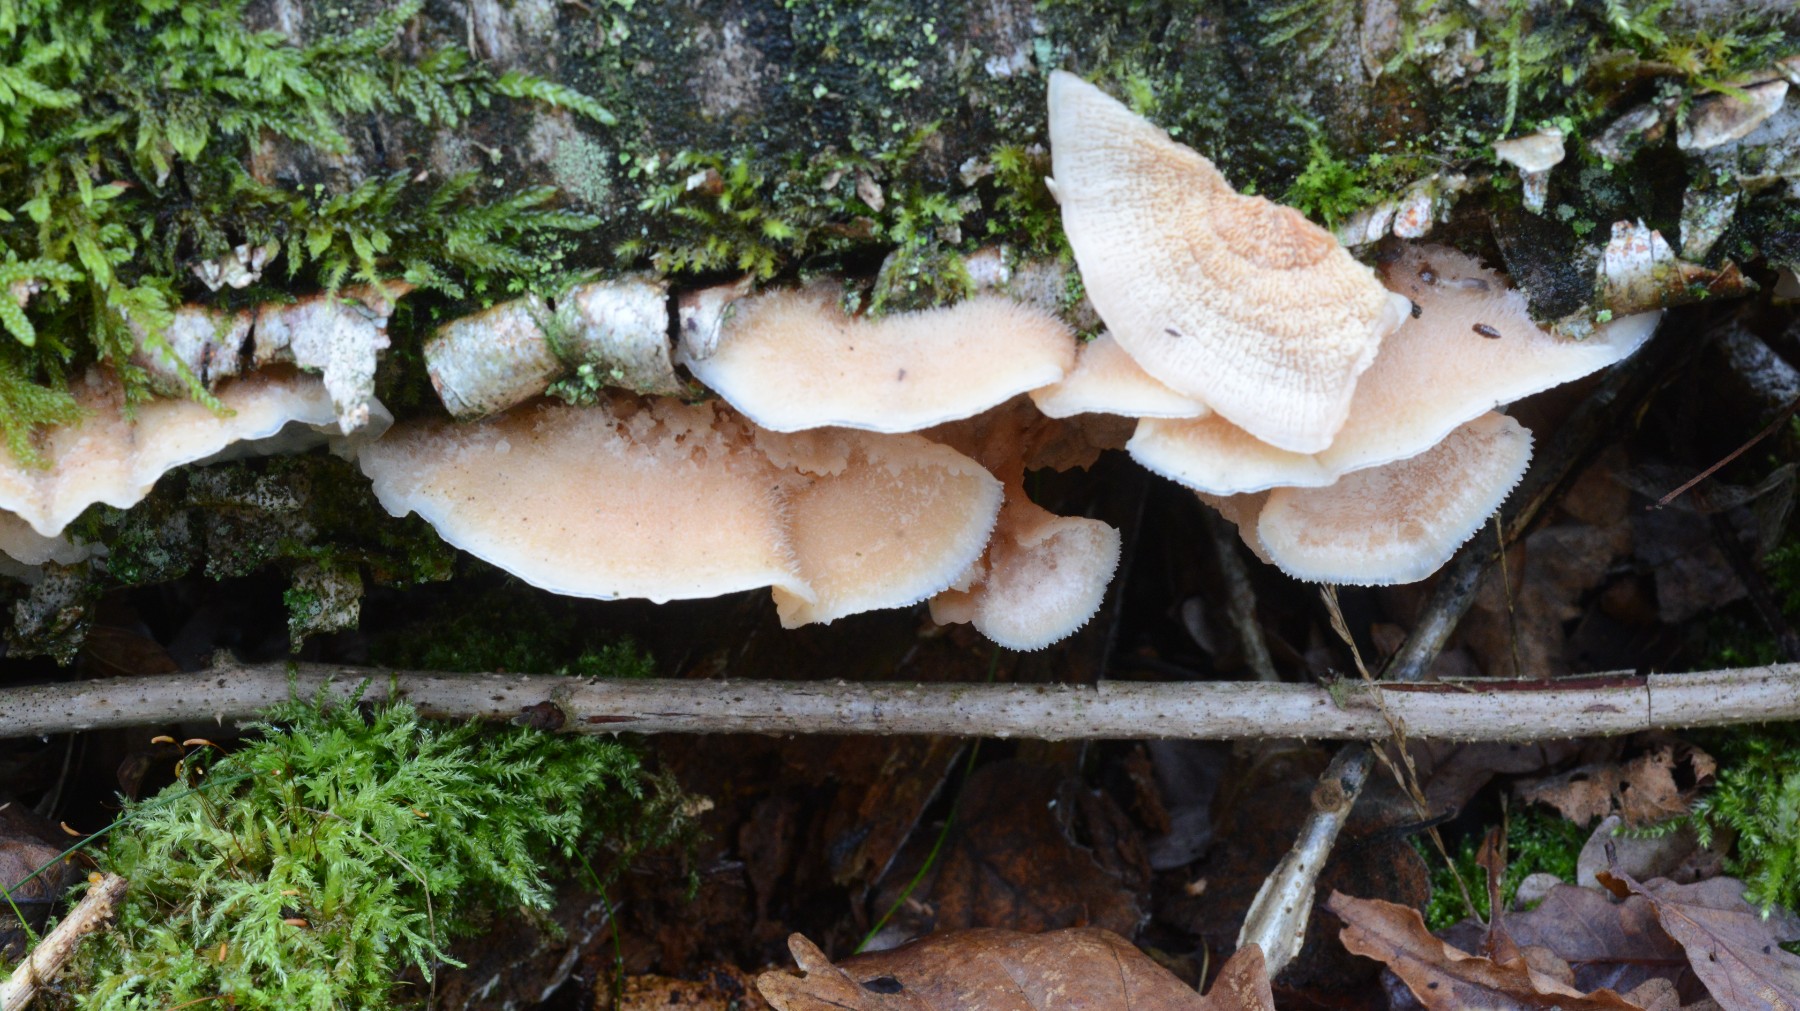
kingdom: Fungi
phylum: Basidiomycota
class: Agaricomycetes
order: Polyporales
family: Meruliaceae
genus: Phlebia
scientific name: Phlebia tremellosa
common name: bævrende åresvamp
